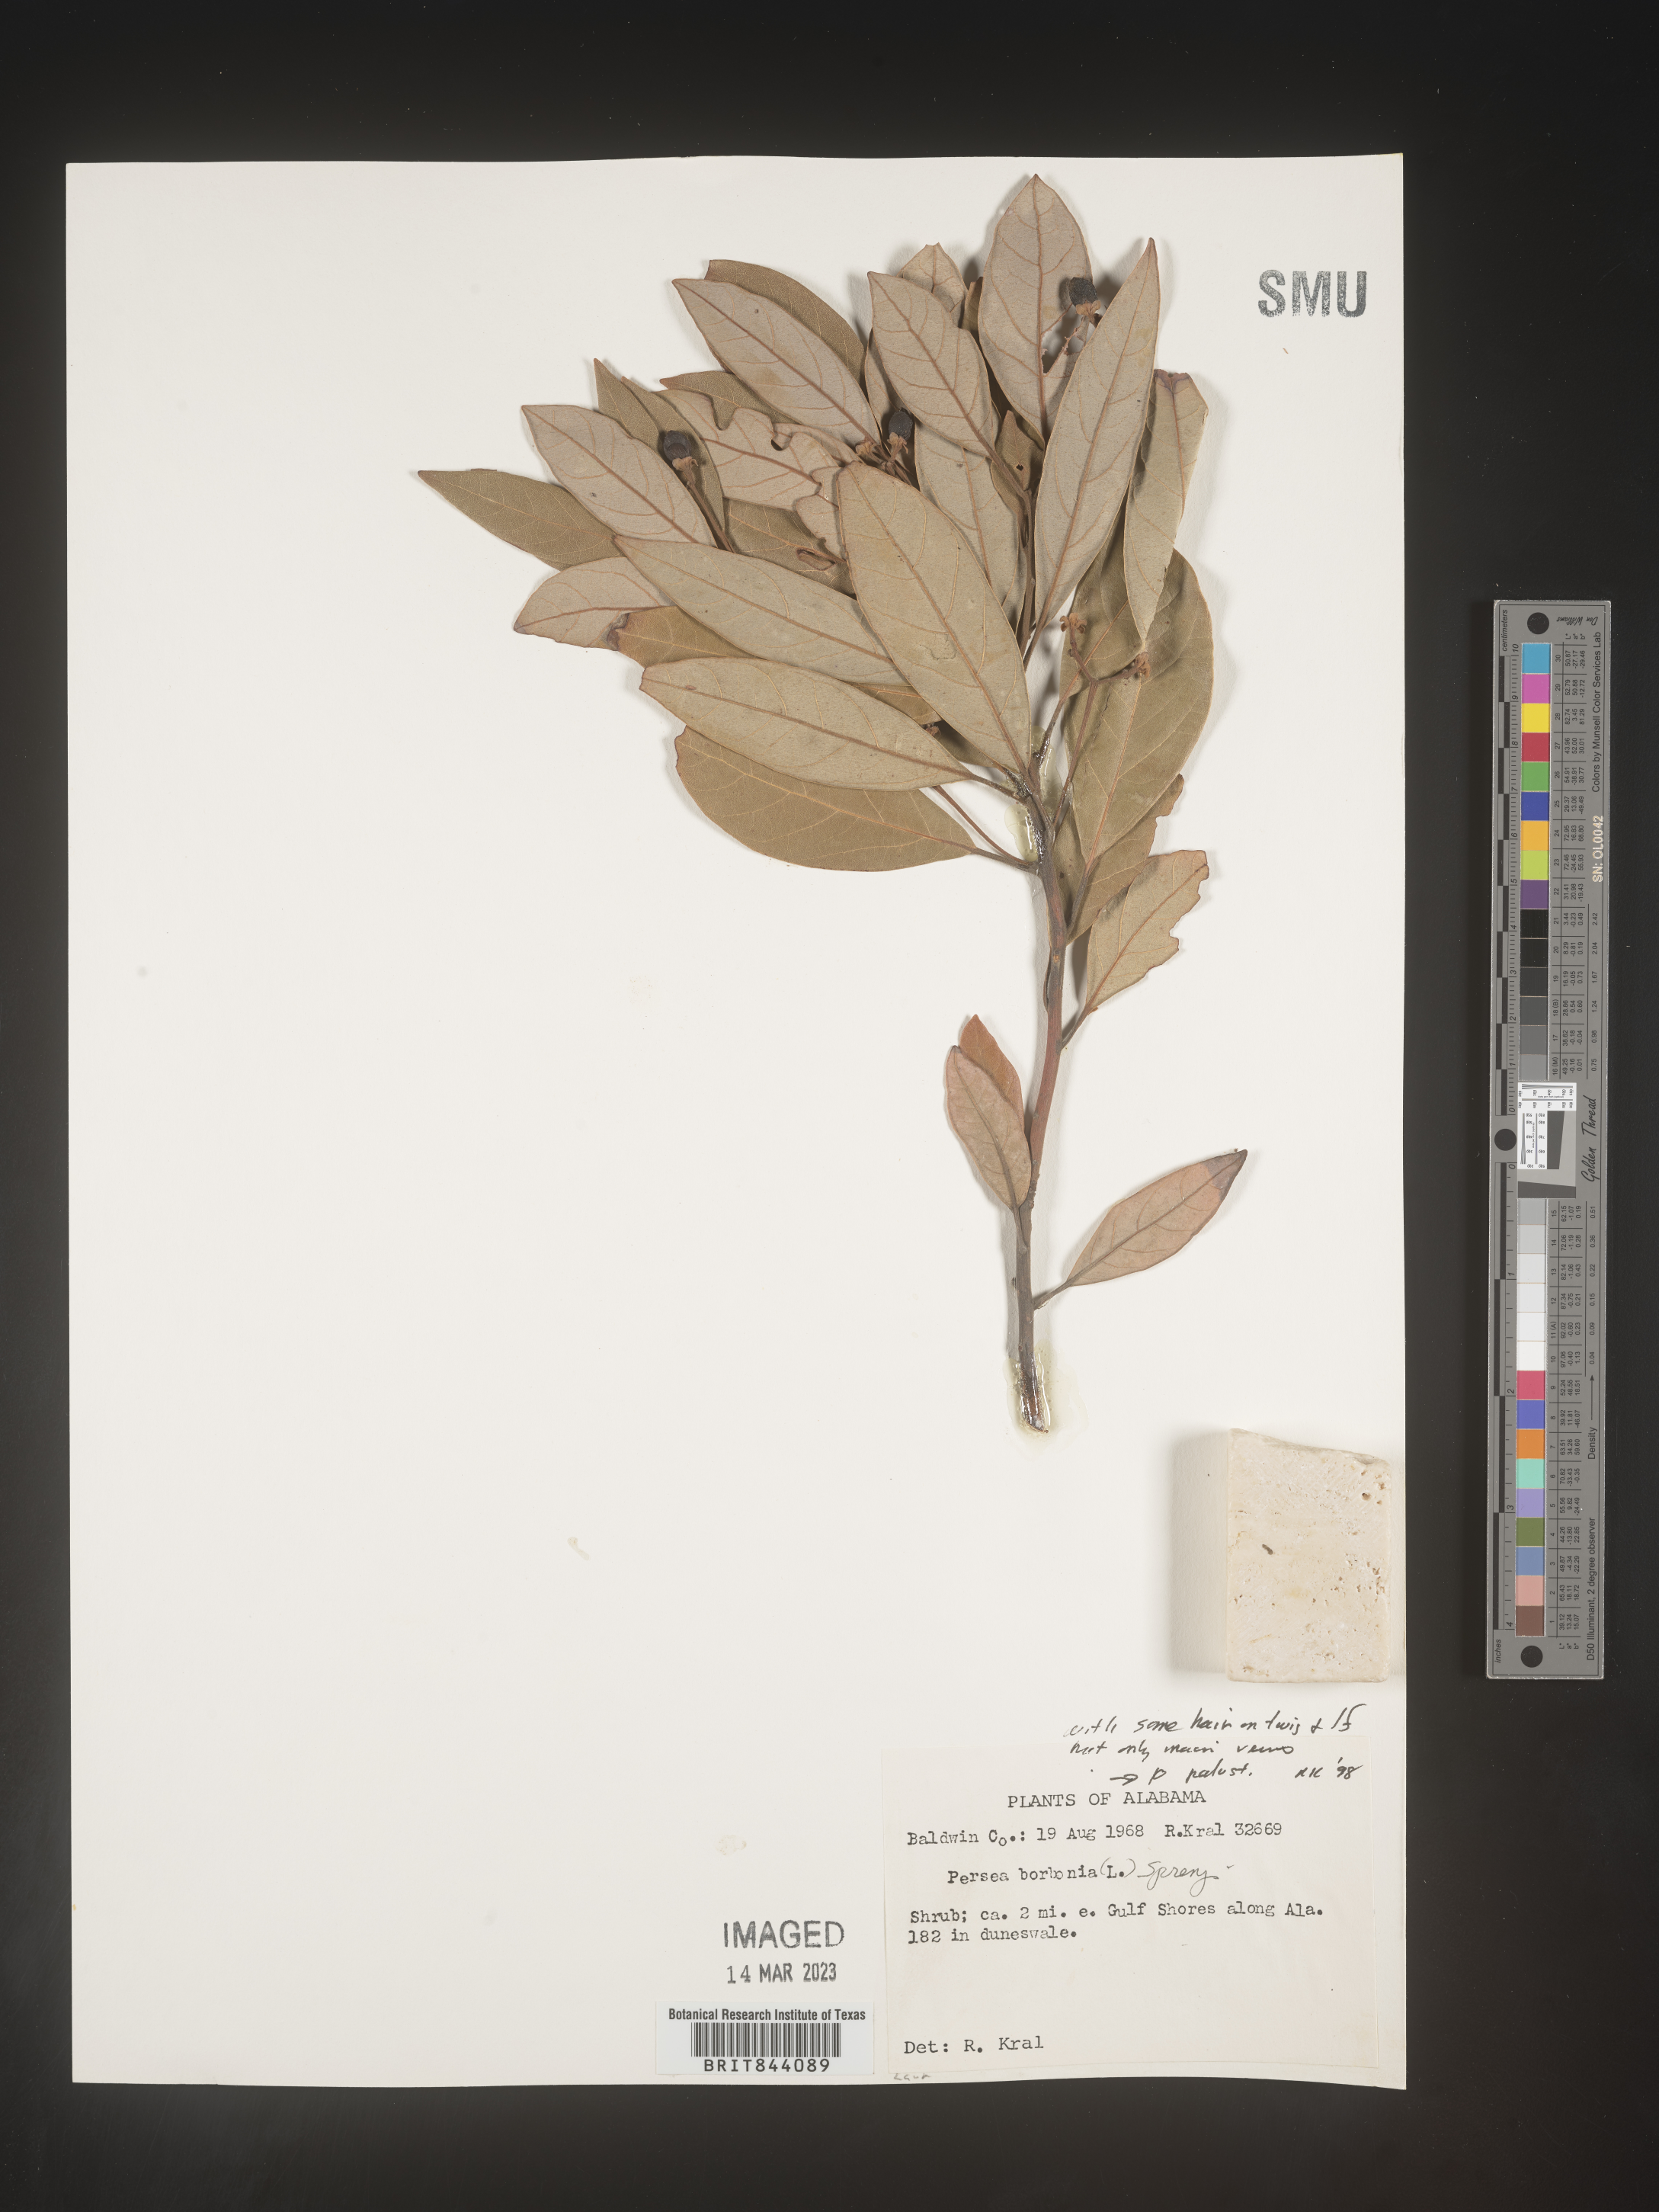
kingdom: Plantae
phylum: Tracheophyta
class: Magnoliopsida
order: Laurales
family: Lauraceae
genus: Persea
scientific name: Persea borbonia
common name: Redbay
